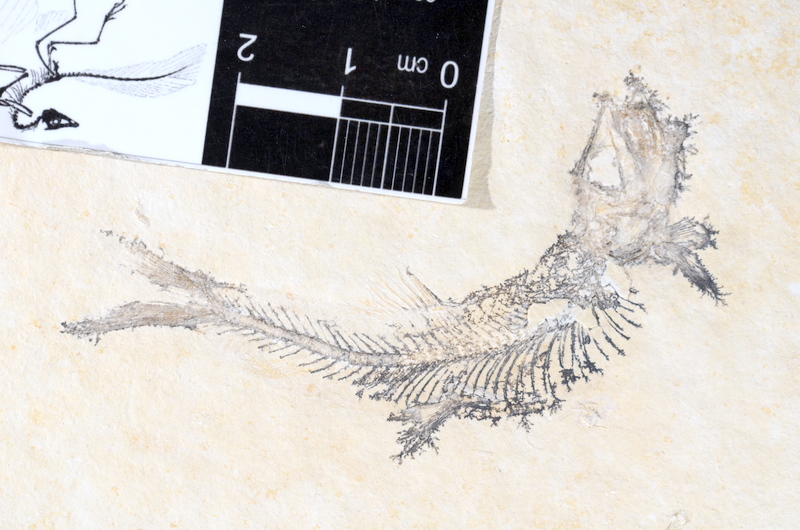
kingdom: Animalia
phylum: Chordata
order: Salmoniformes
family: Orthogonikleithridae
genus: Leptolepides
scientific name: Leptolepides sprattiformis
